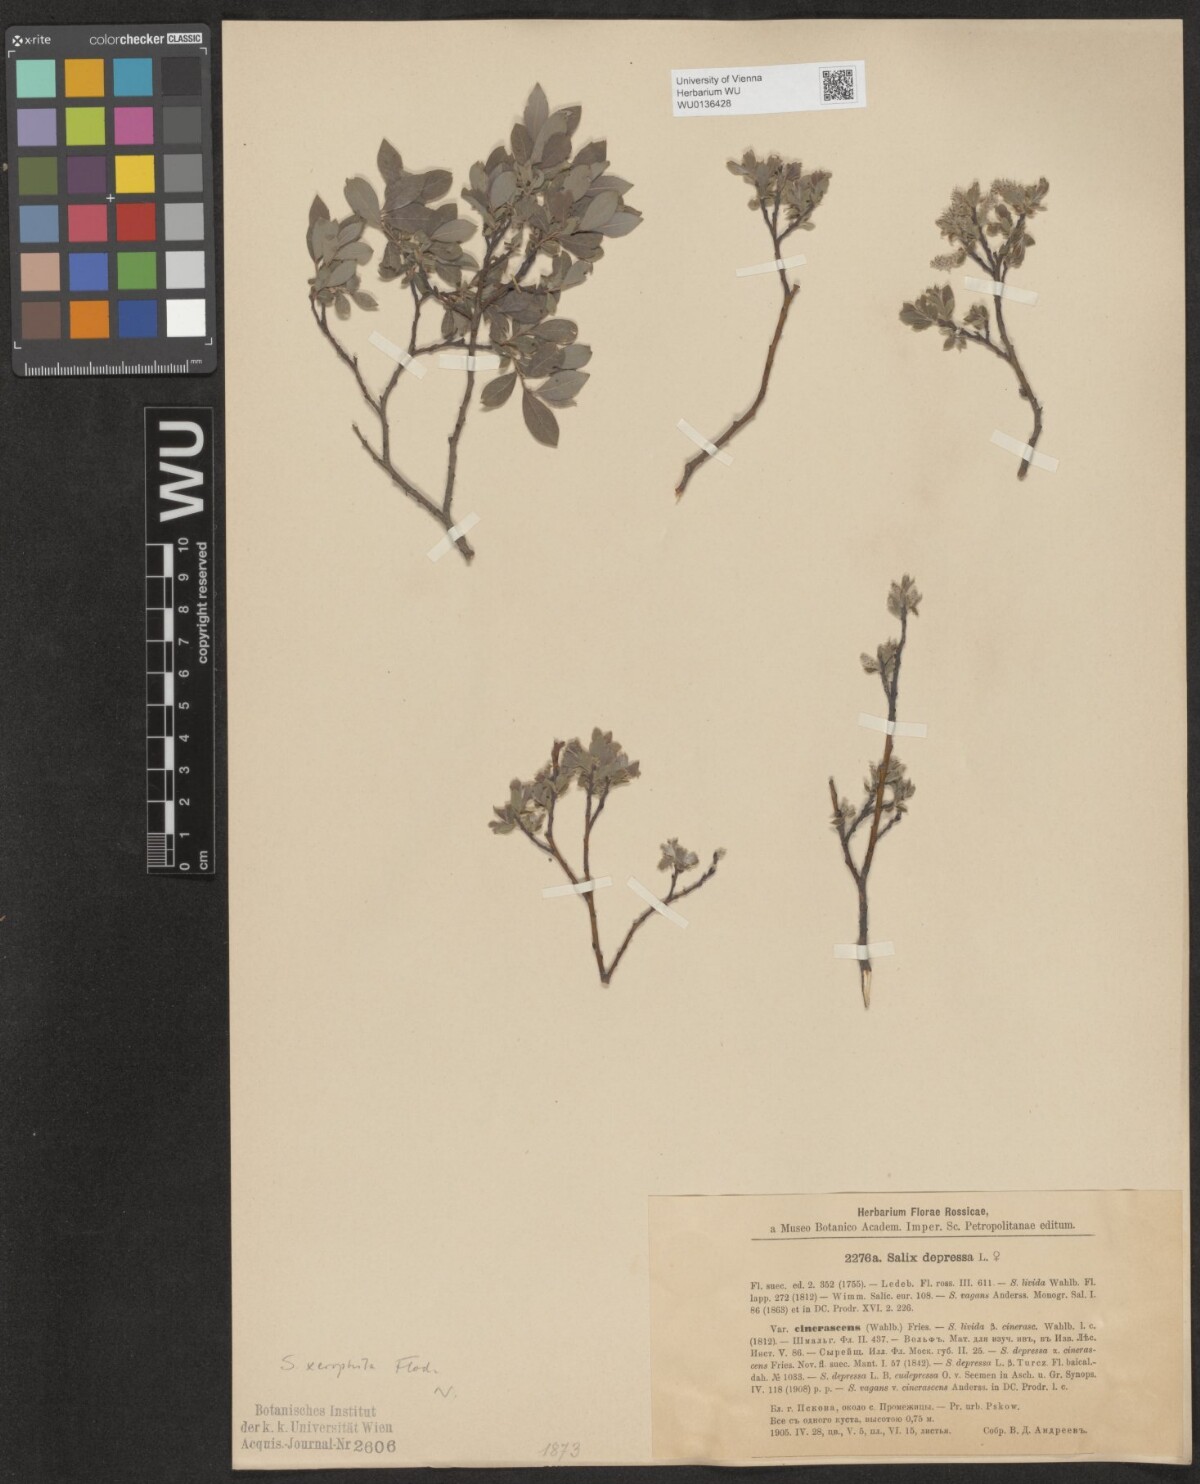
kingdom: Plantae
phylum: Tracheophyta
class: Magnoliopsida
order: Malpighiales
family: Salicaceae
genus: Salix
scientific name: Salix lanata
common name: Woolly willow
